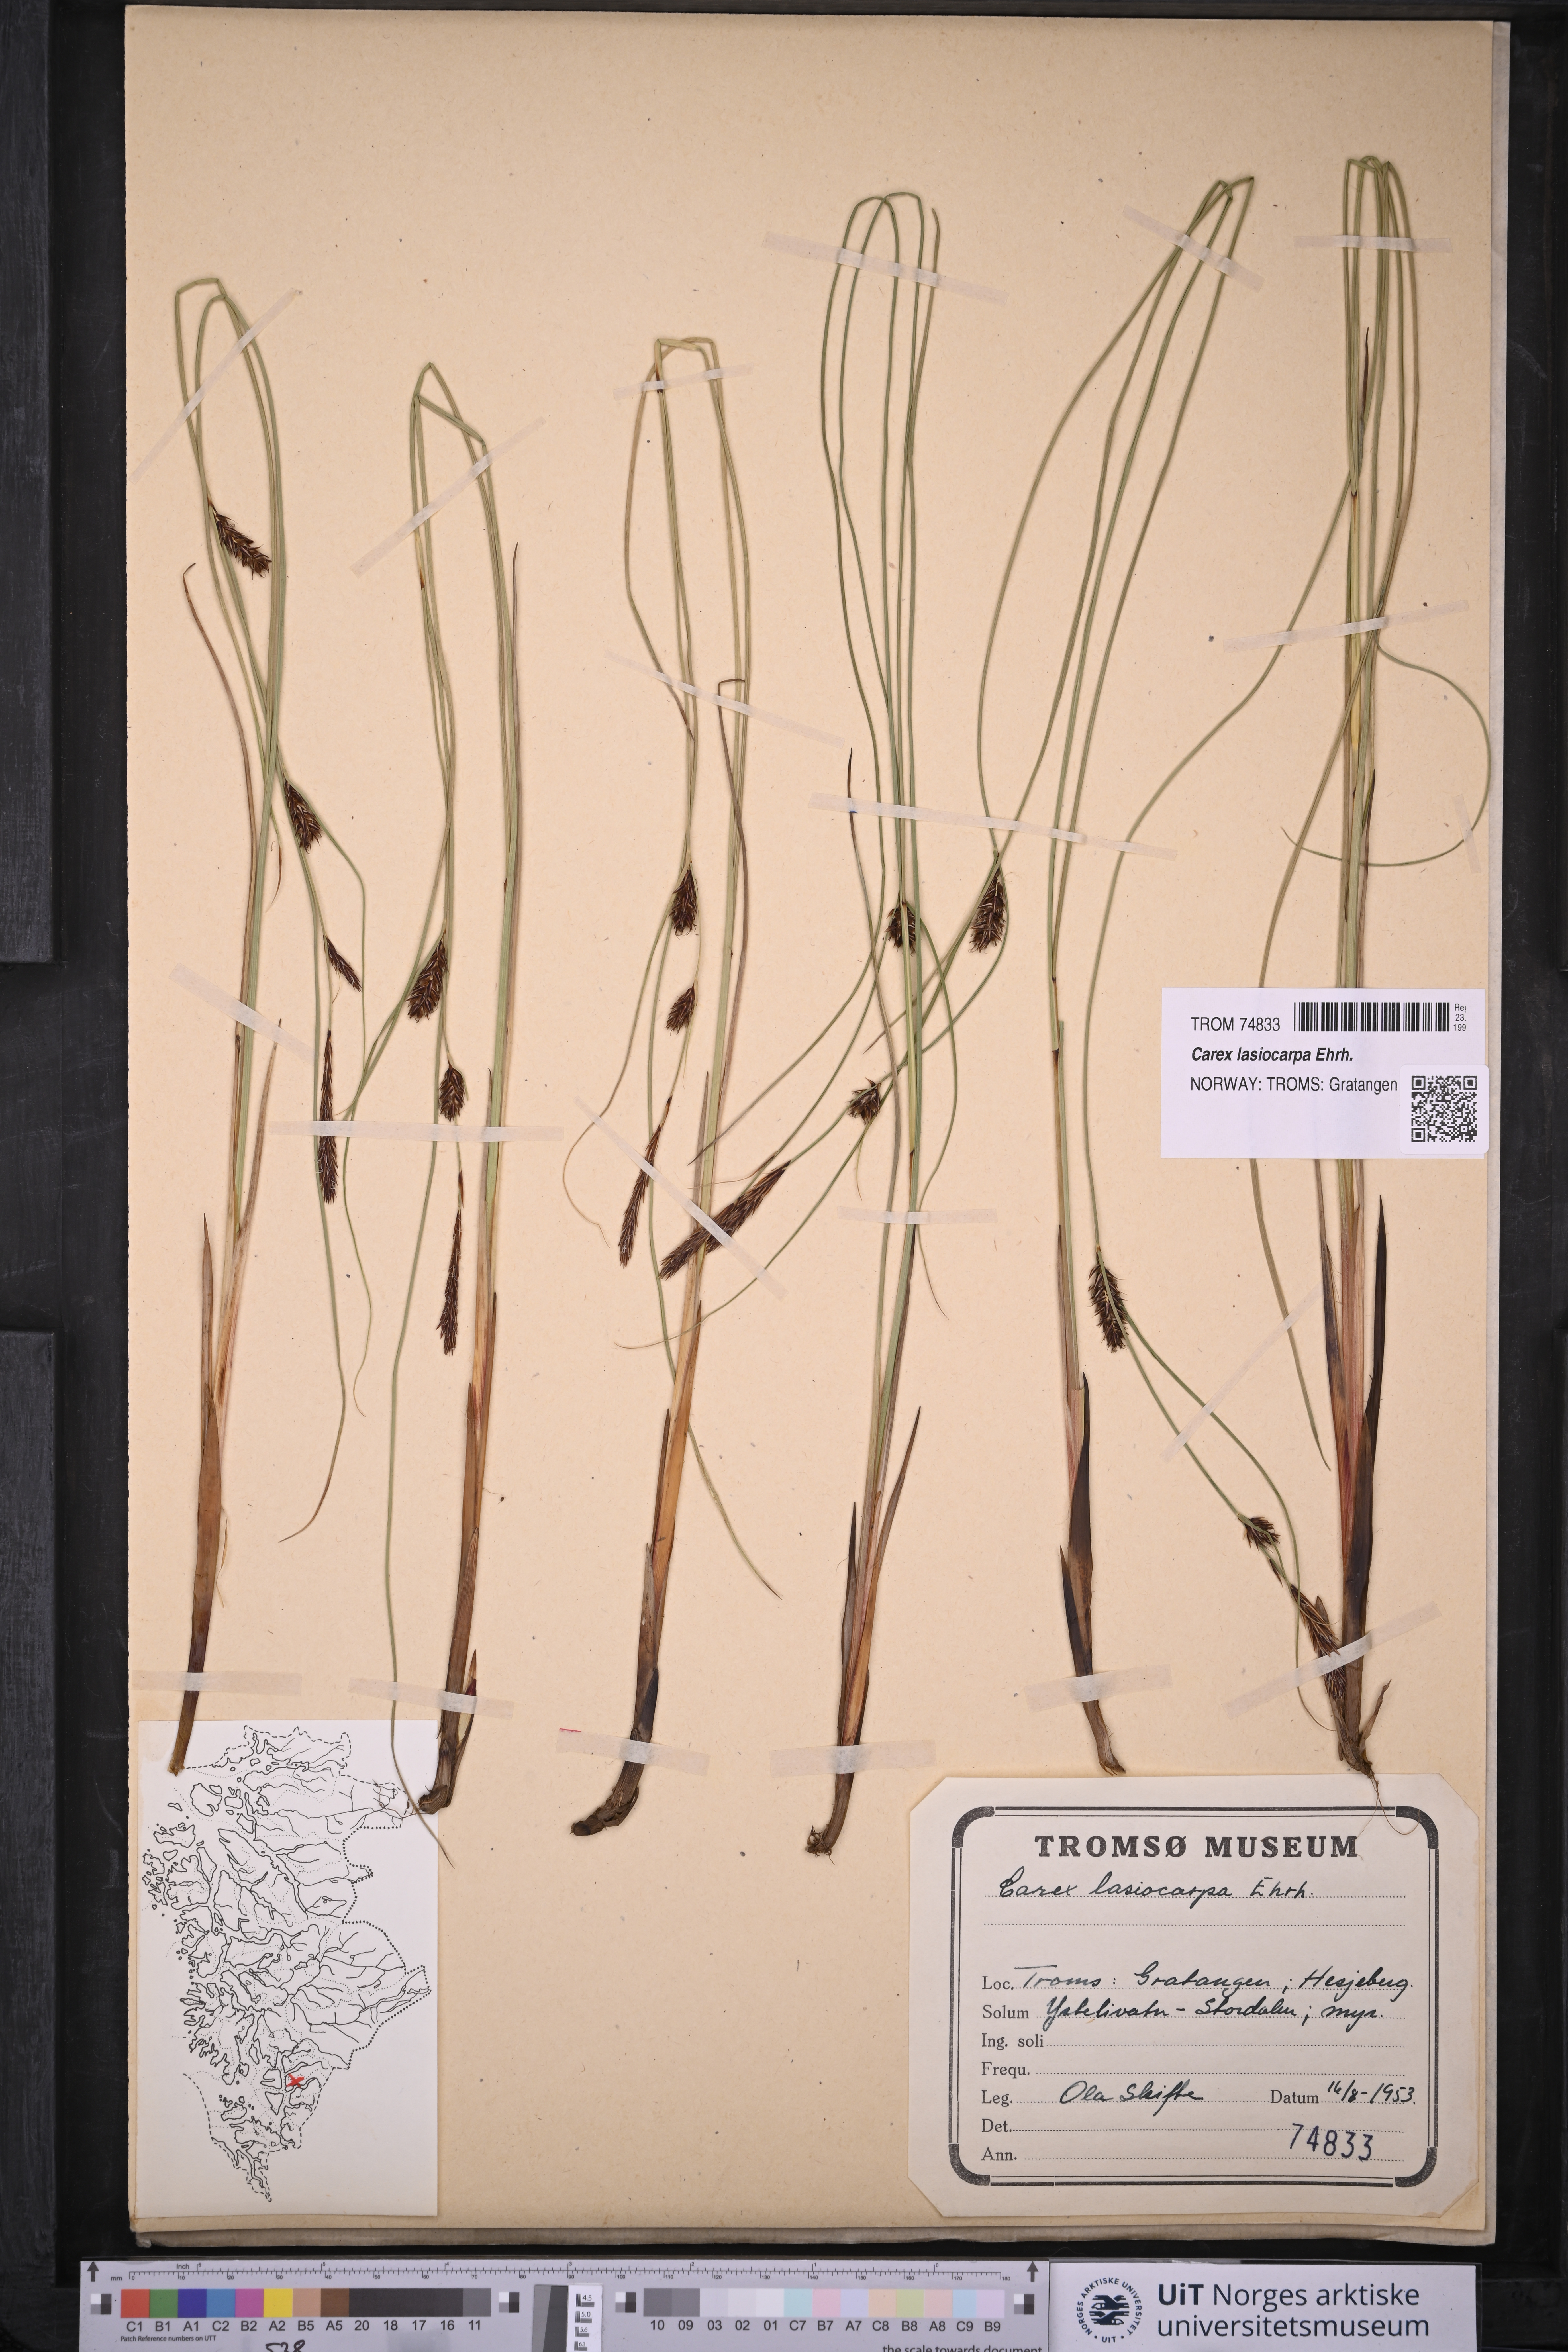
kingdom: Plantae
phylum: Tracheophyta
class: Liliopsida
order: Poales
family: Cyperaceae
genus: Carex
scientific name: Carex lasiocarpa
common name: Slender sedge
